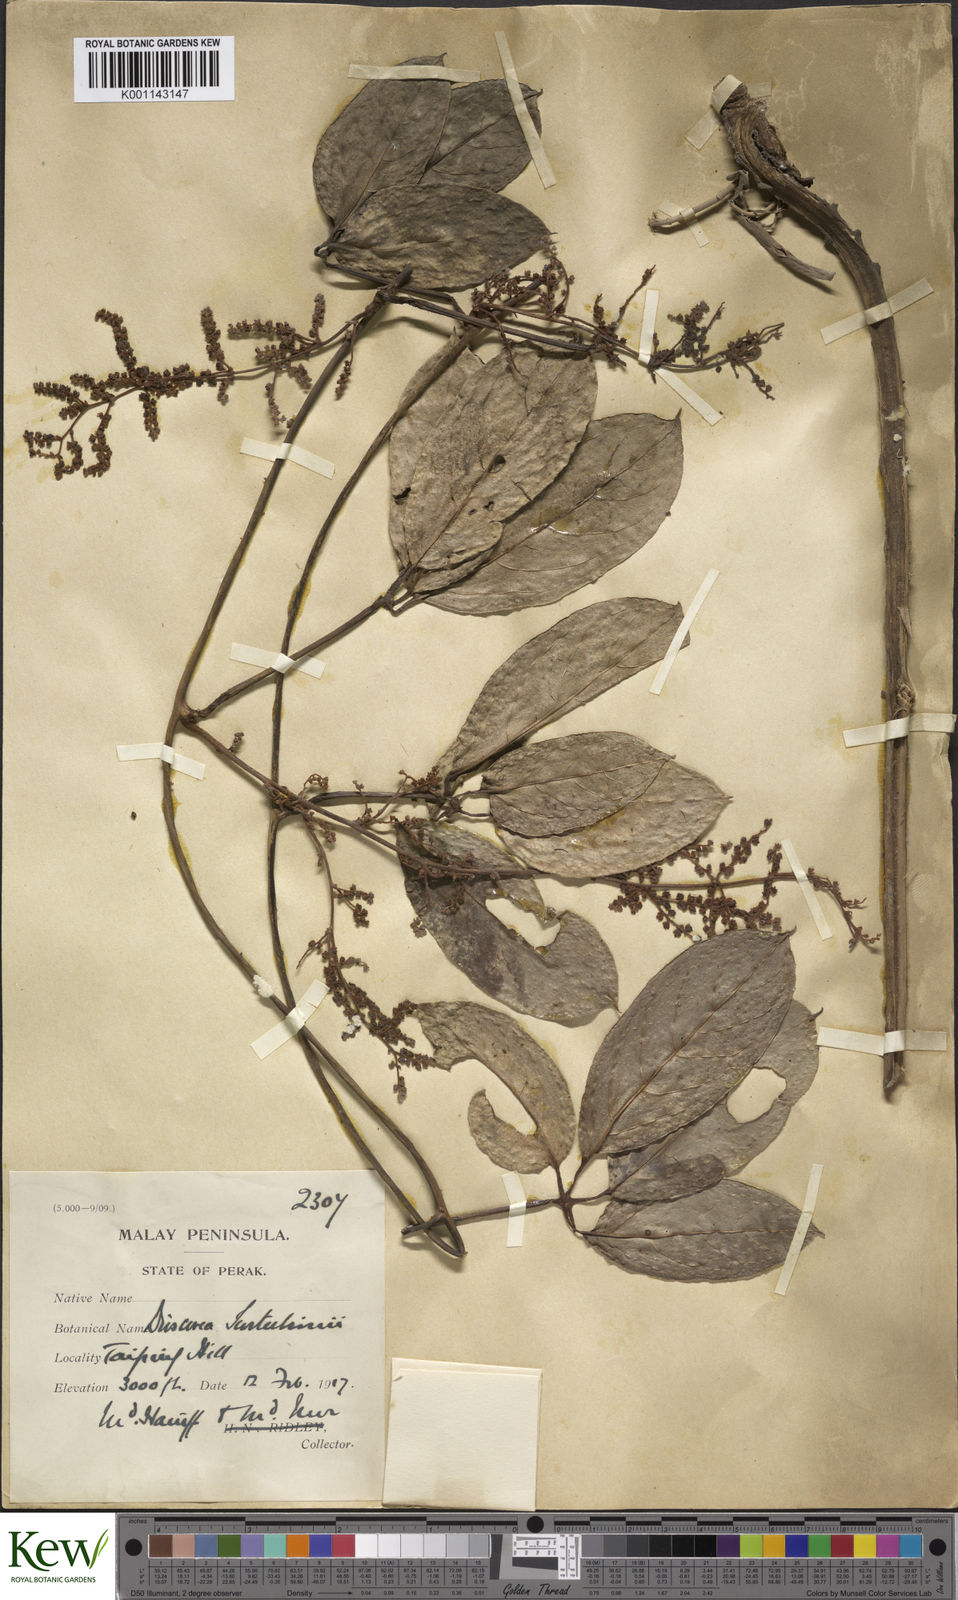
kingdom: Plantae
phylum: Tracheophyta
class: Liliopsida
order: Dioscoreales
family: Dioscoreaceae
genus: Dioscorea
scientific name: Dioscorea scortechinii
